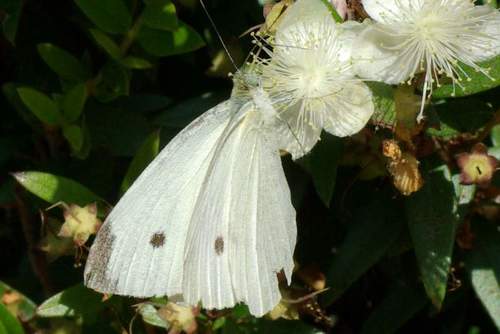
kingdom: Animalia
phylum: Arthropoda
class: Insecta
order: Lepidoptera
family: Pieridae
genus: Pieris
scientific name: Pieris rapae
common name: Small white
